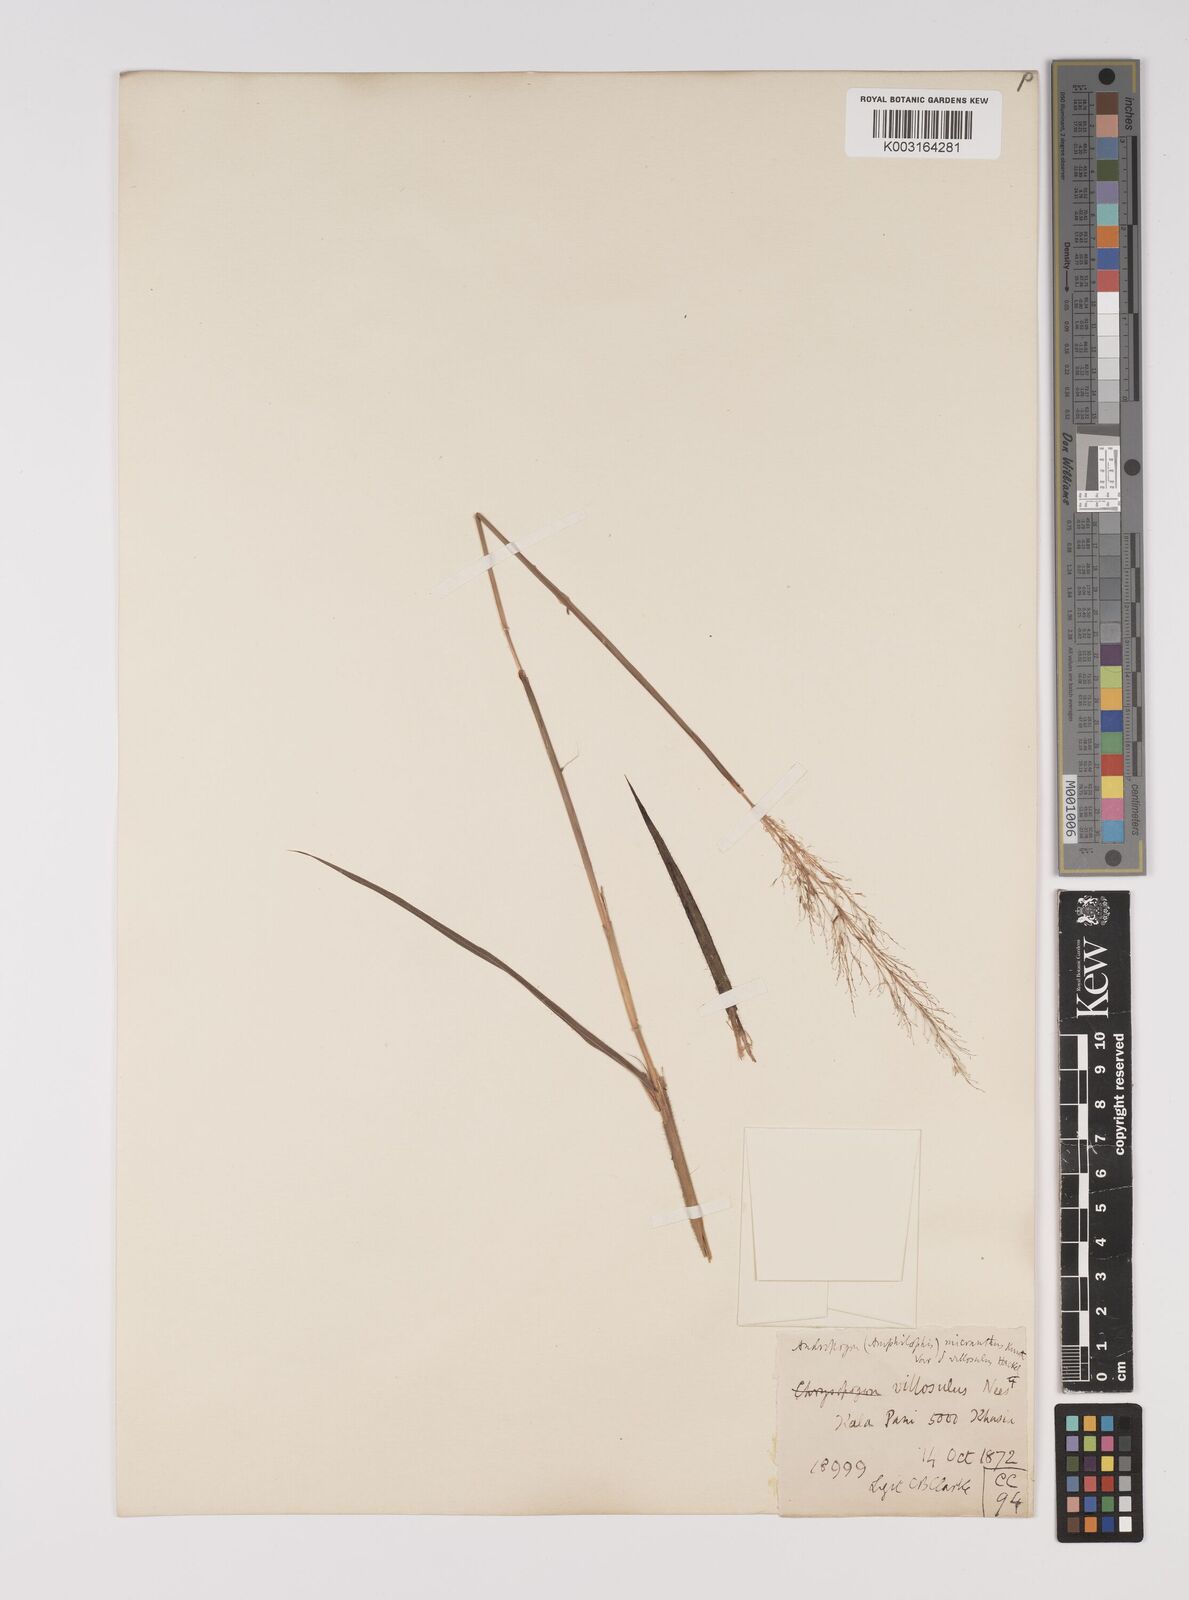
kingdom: Plantae
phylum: Tracheophyta
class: Liliopsida
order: Poales
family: Poaceae
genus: Capillipedium
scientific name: Capillipedium parviflorum
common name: Golden-beard
